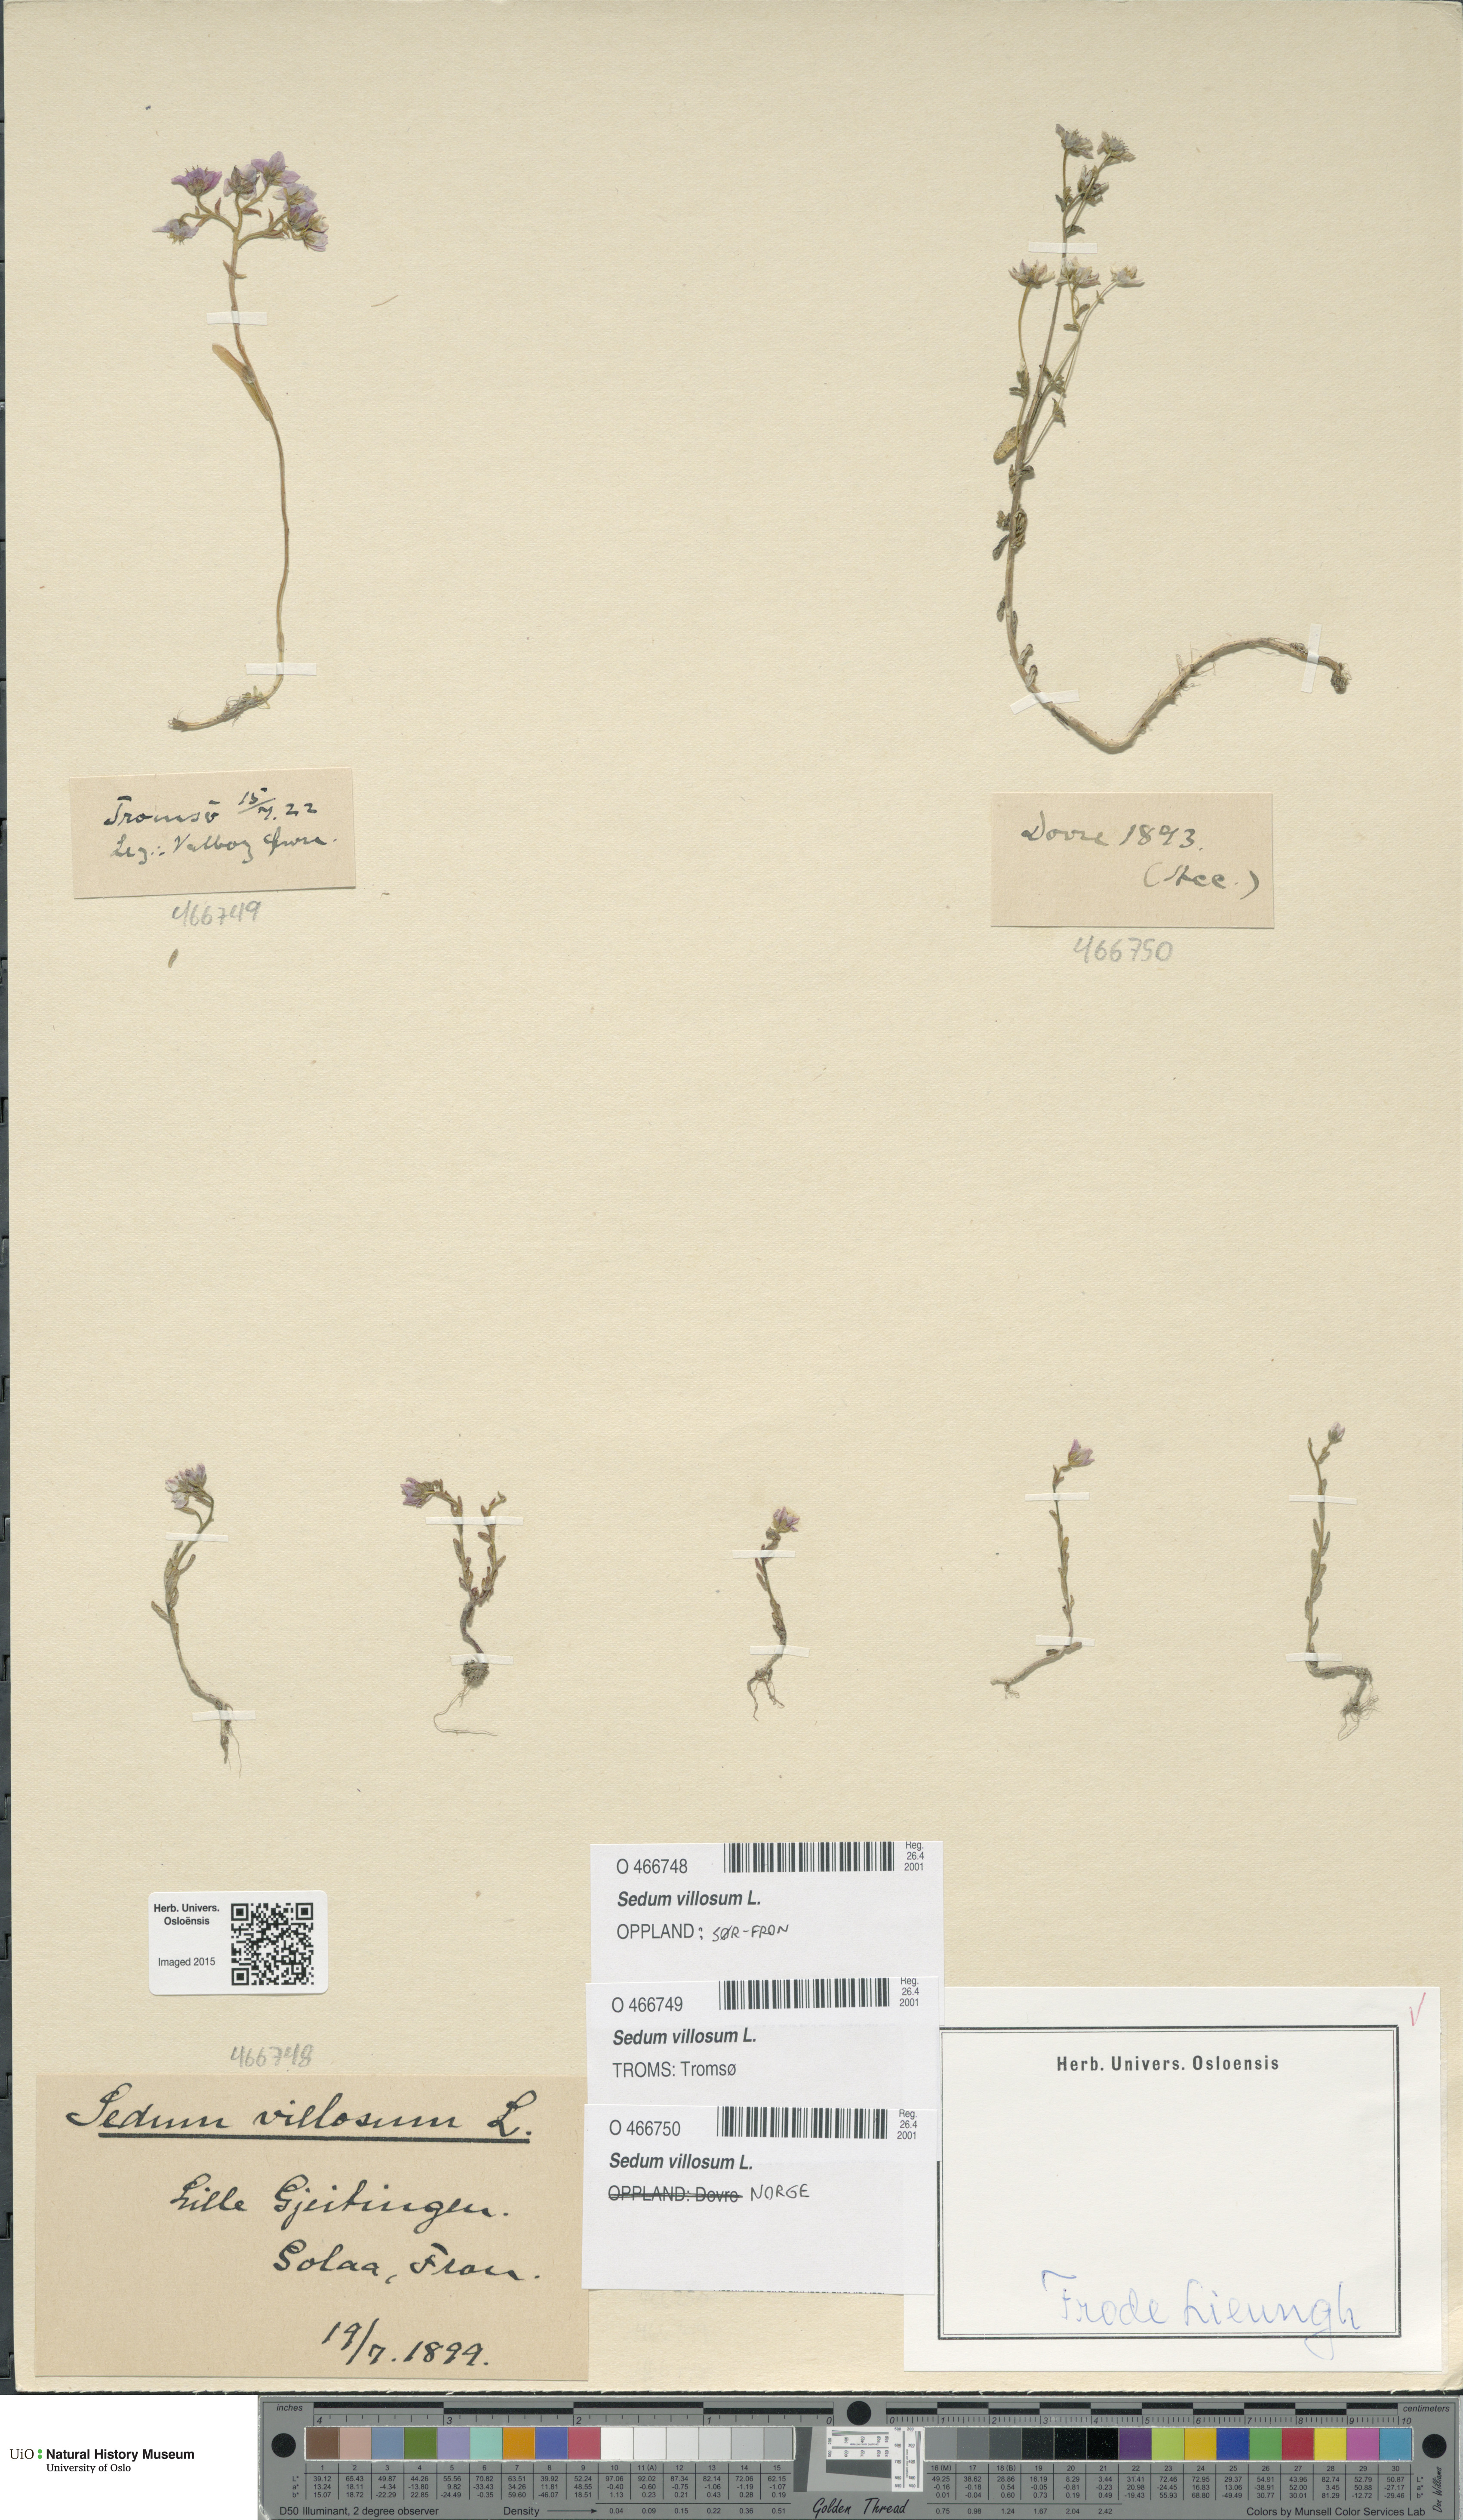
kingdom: Plantae
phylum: Tracheophyta
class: Magnoliopsida
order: Saxifragales
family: Crassulaceae
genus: Sedum
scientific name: Sedum villosum
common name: Hairy stonecrop
